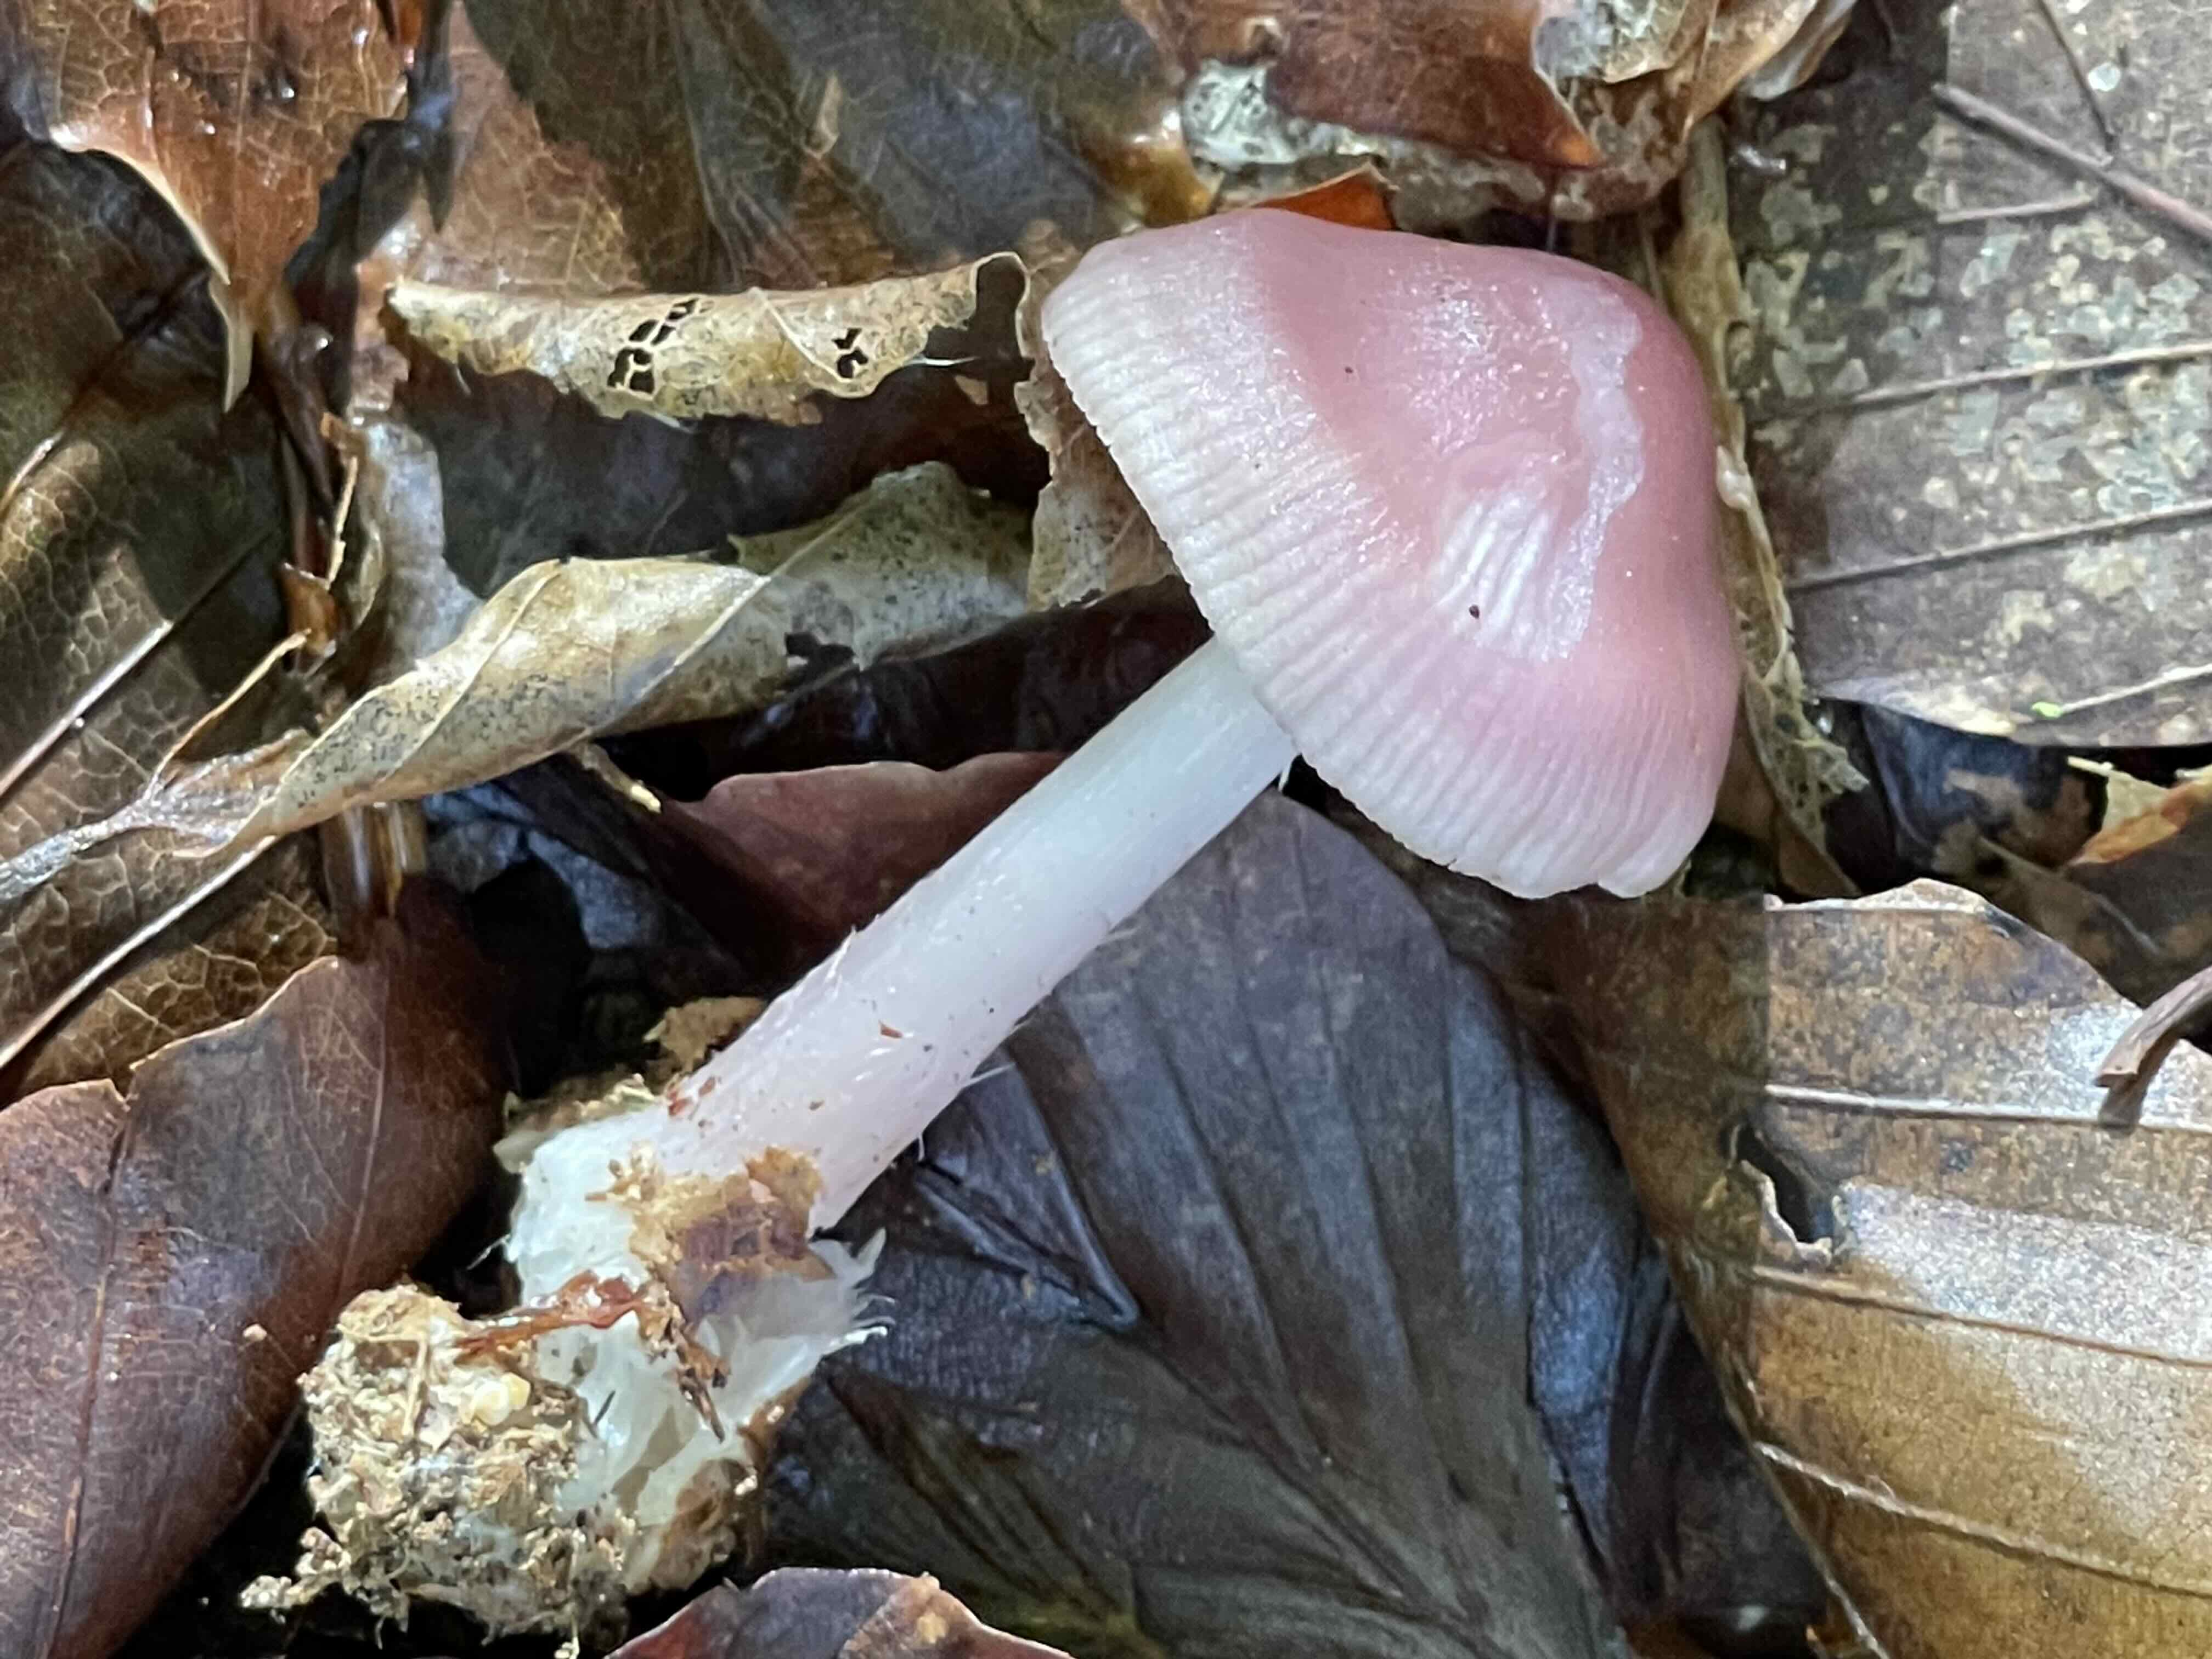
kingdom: Fungi
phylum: Basidiomycota
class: Agaricomycetes
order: Agaricales
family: Mycenaceae
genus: Mycena
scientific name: Mycena rosea
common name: rosa huesvamp
